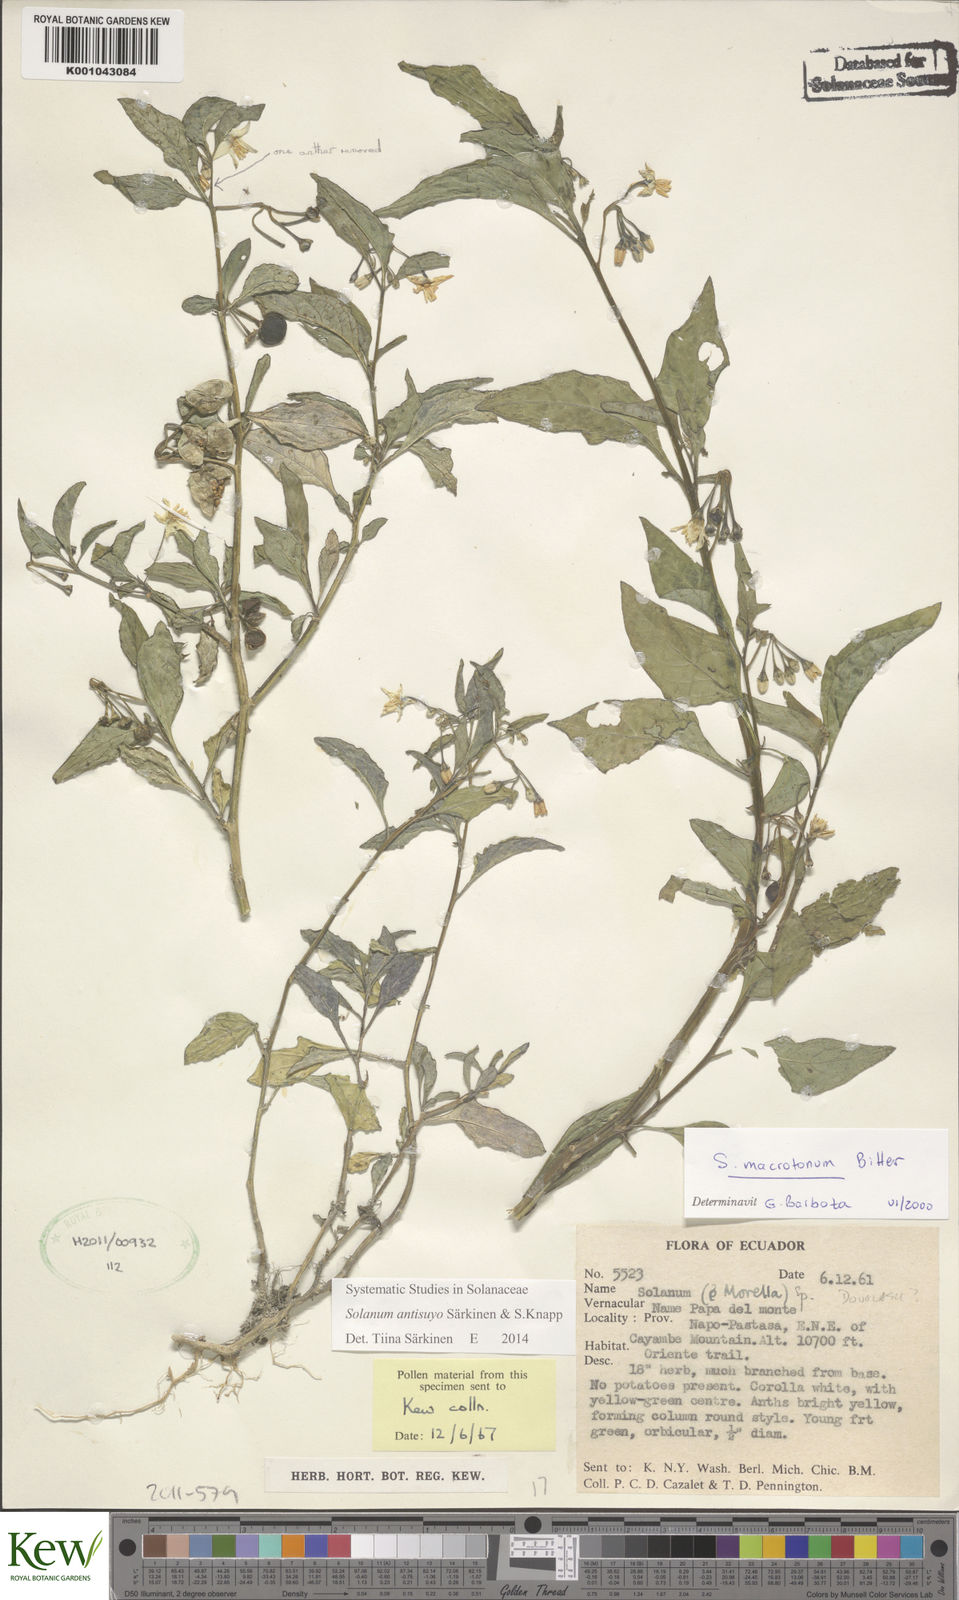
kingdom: Plantae
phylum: Tracheophyta
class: Magnoliopsida
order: Solanales
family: Solanaceae
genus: Solanum
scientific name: Solanum
